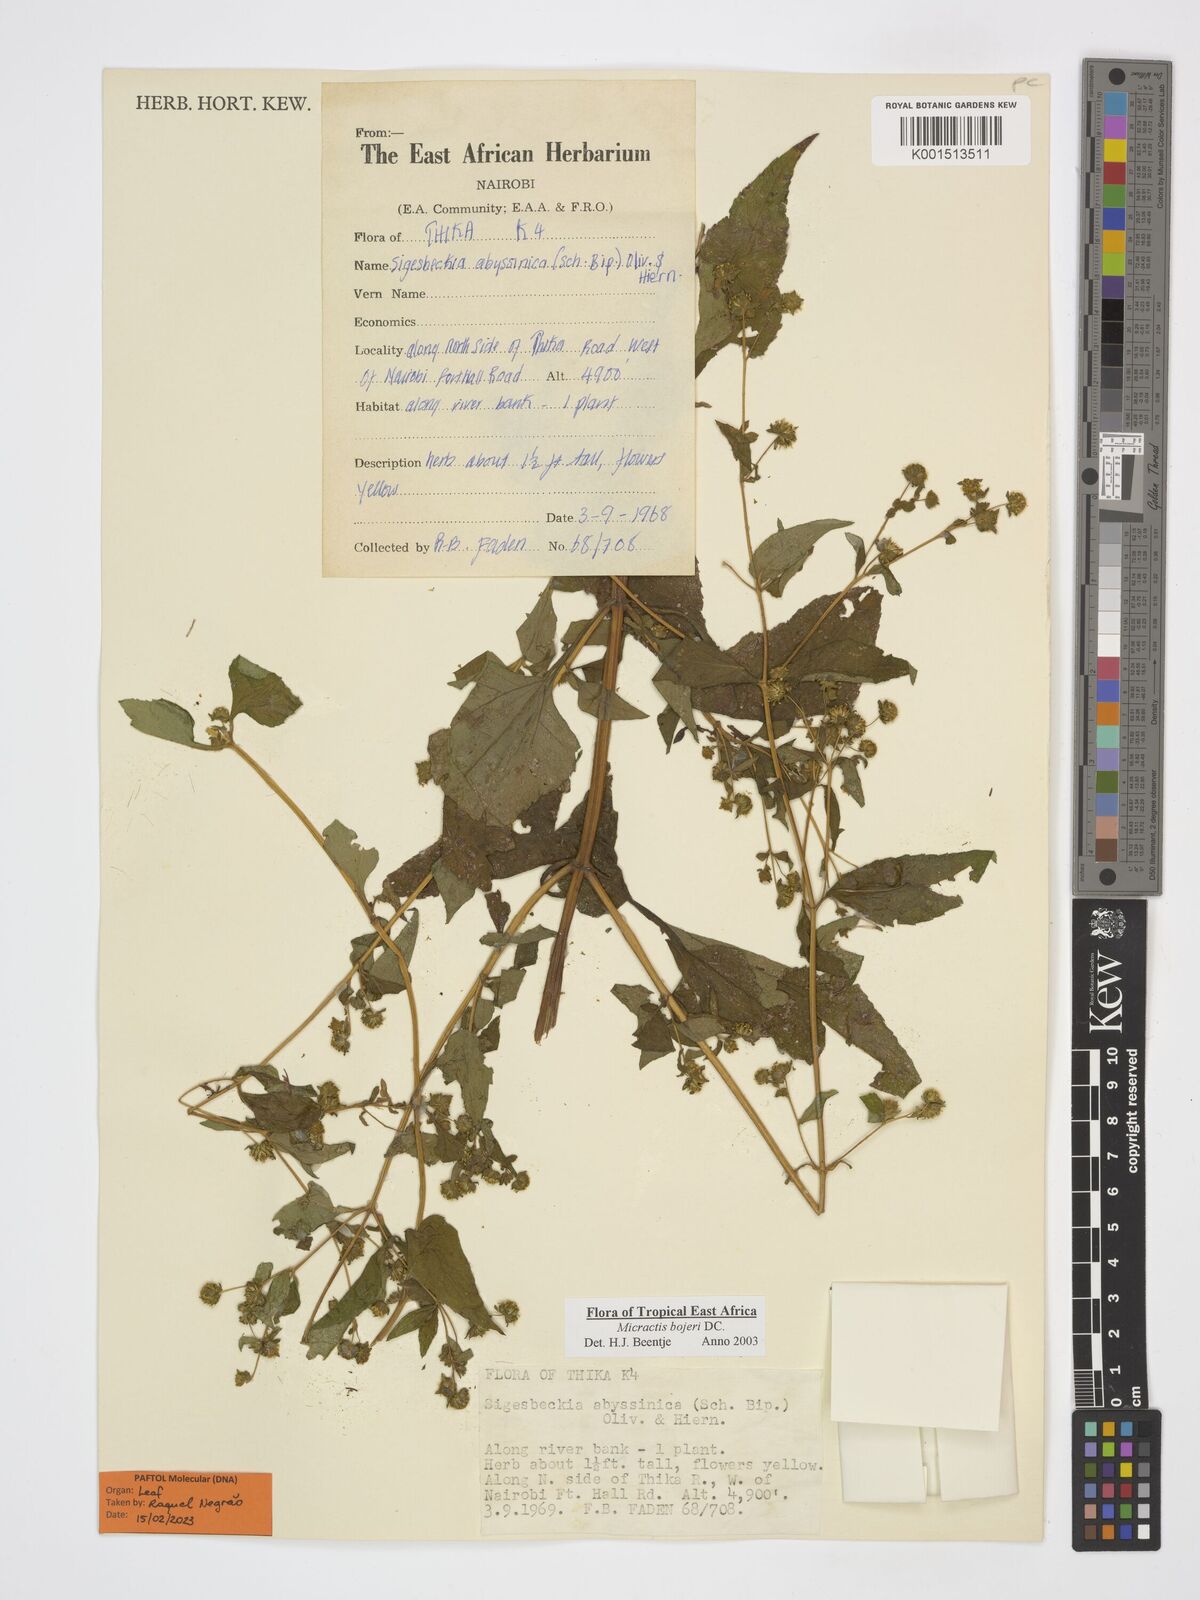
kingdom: Plantae
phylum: Tracheophyta
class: Magnoliopsida
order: Asterales
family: Asteraceae
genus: Micractis
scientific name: Micractis bojeri
